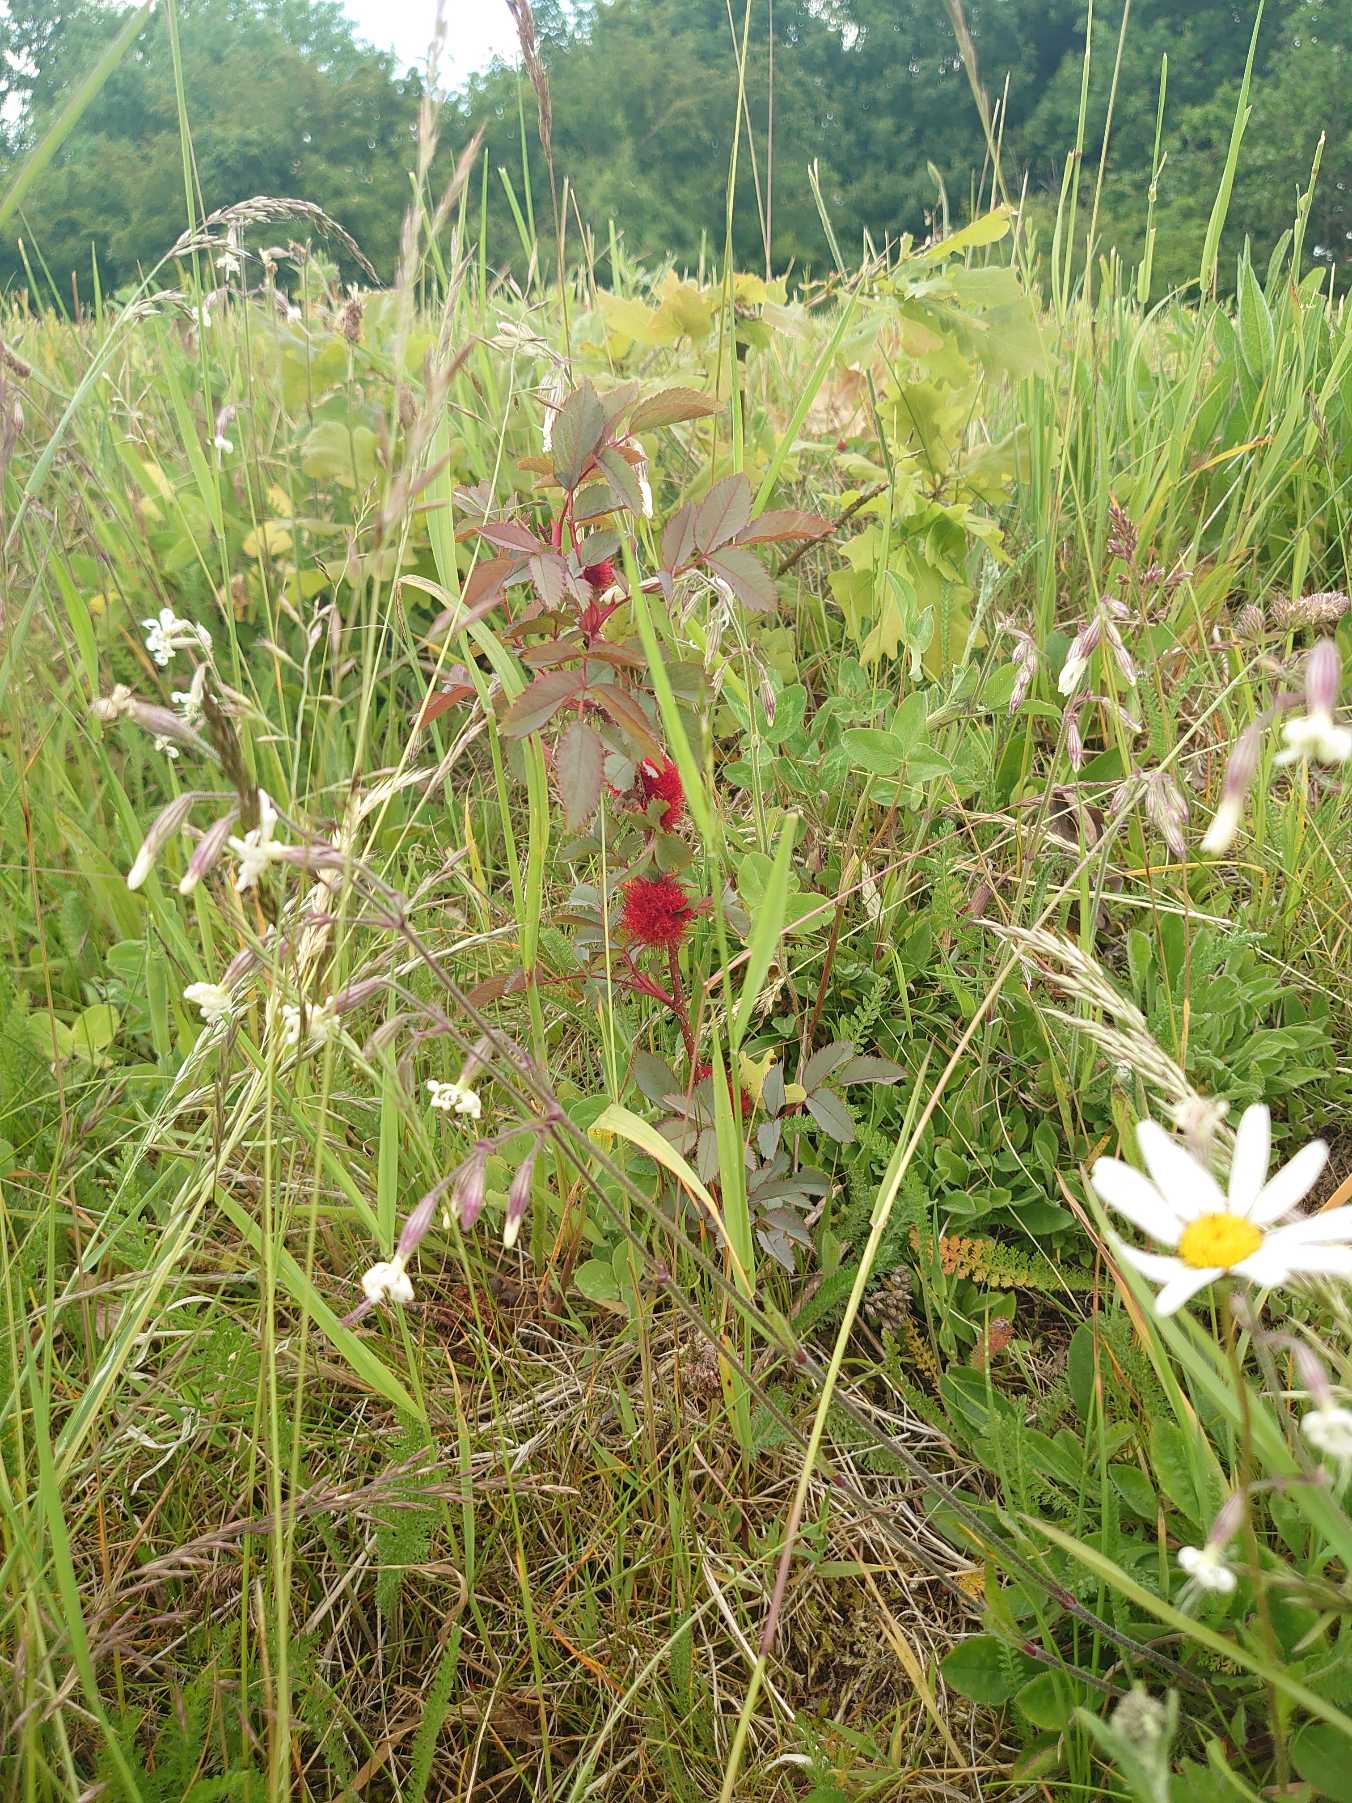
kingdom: Animalia
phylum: Arthropoda
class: Insecta
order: Hymenoptera
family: Cynipidae
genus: Diplolepis
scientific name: Diplolepis rosae
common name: Bedeguargalhveps
